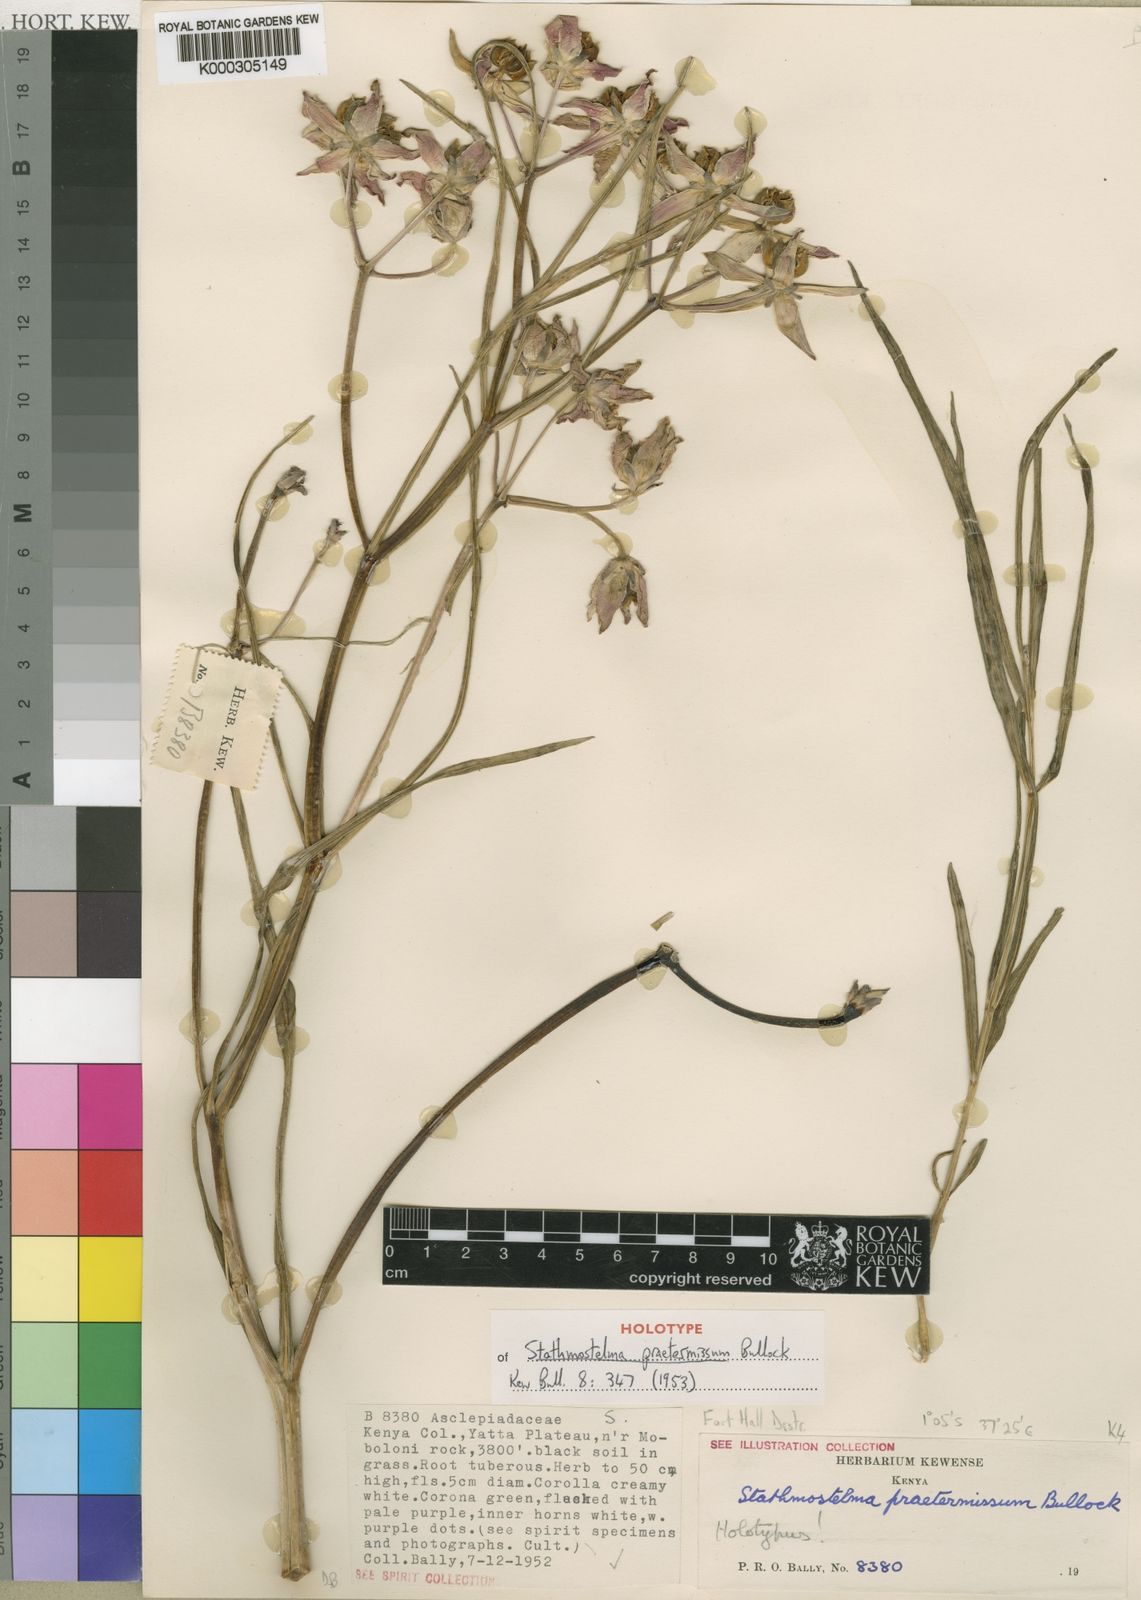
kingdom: Plantae
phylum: Tracheophyta
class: Magnoliopsida
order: Gentianales
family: Apocynaceae
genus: Stathmostelma
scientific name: Stathmostelma gigantiflorum
